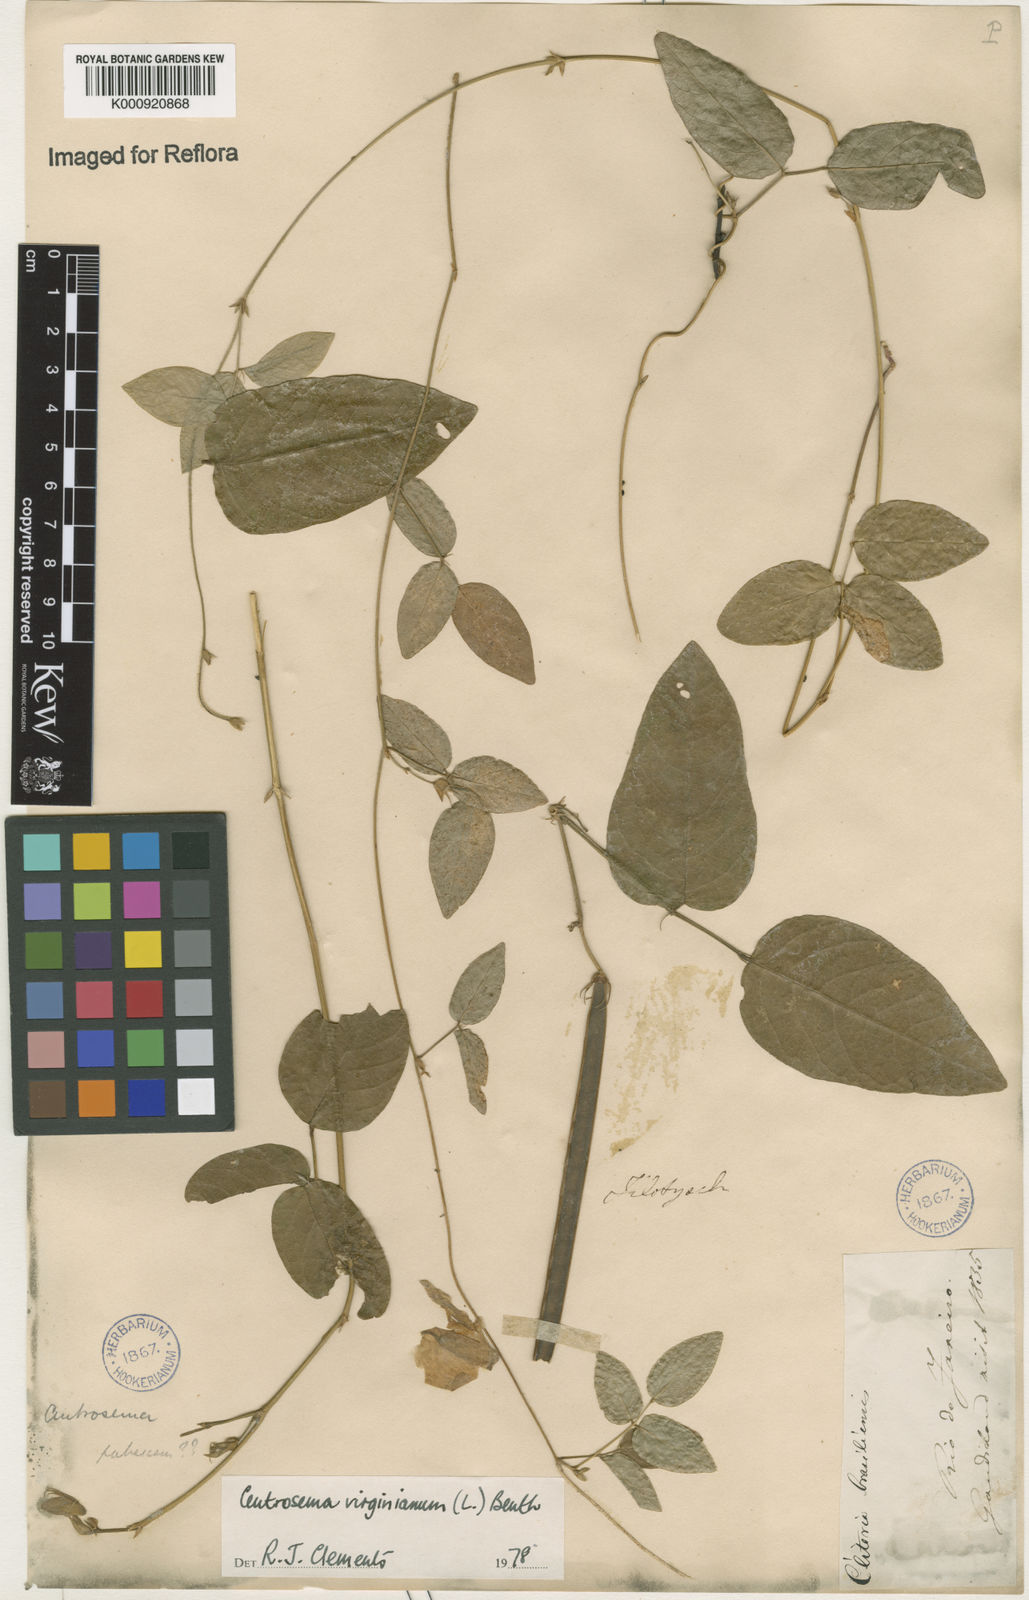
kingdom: Plantae
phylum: Tracheophyta
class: Magnoliopsida
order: Fabales
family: Fabaceae
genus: Centrosema
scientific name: Centrosema virginianum
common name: Butterfly-pea
